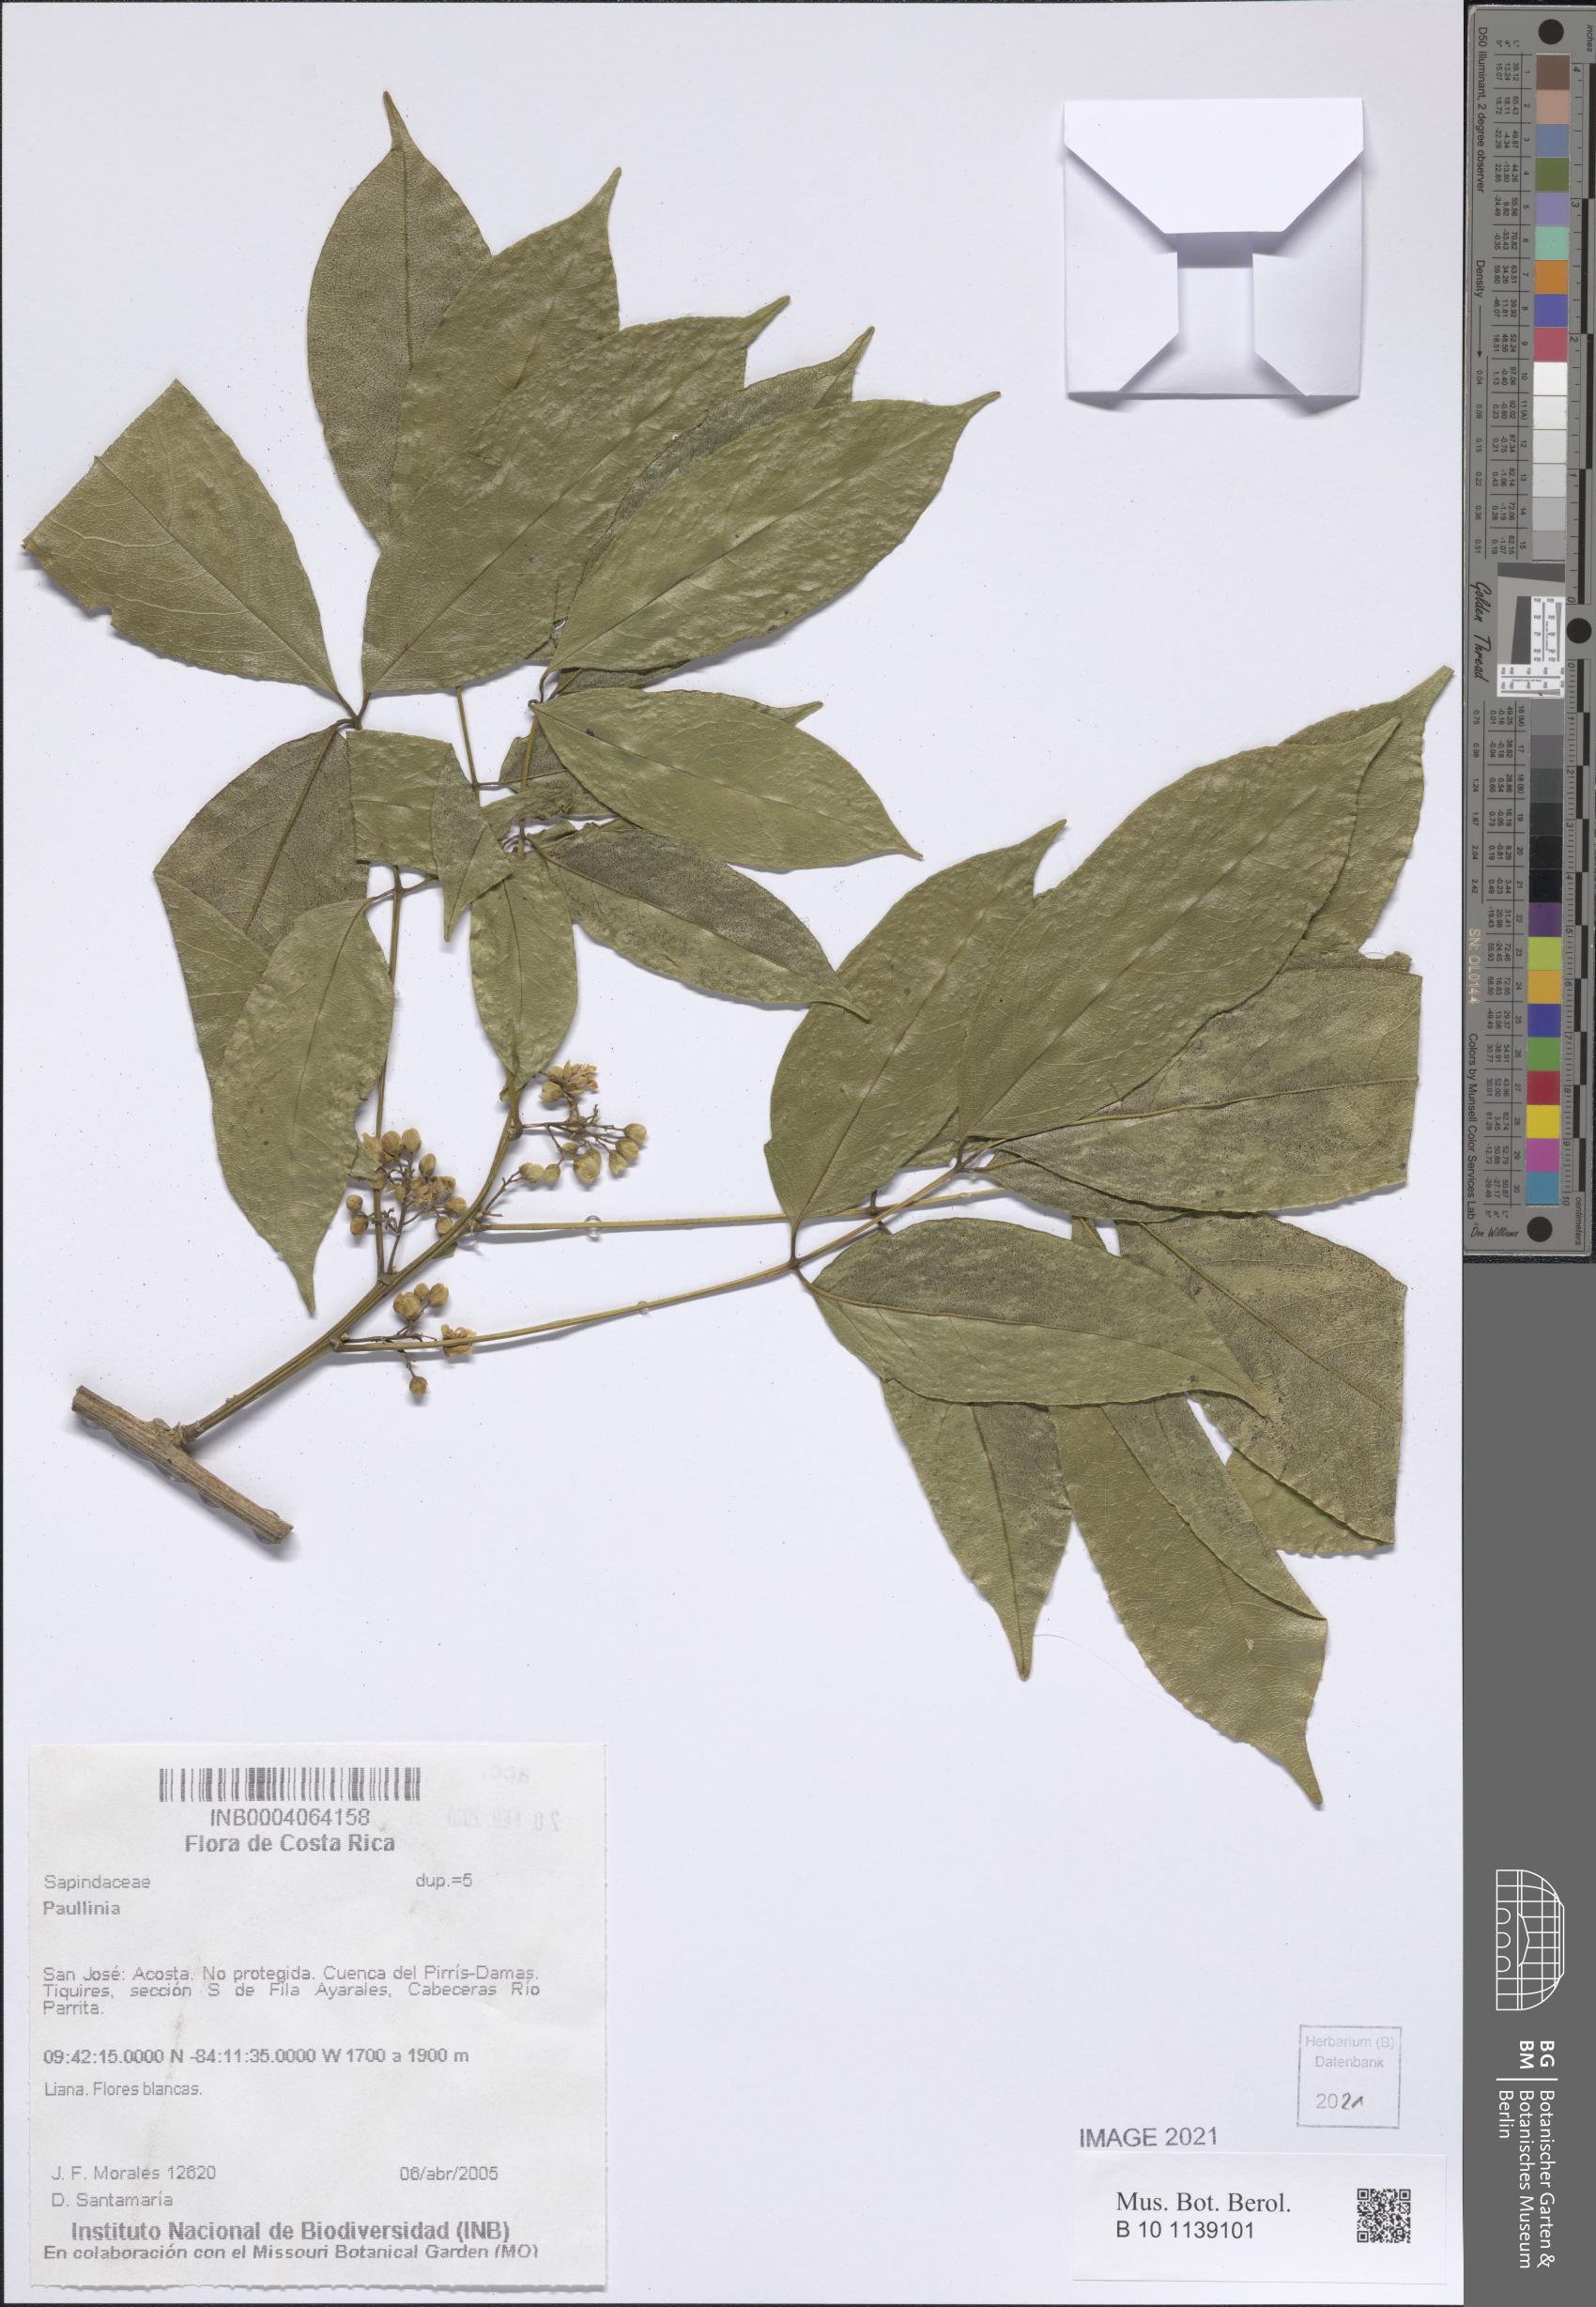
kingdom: Plantae
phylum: Tracheophyta
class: Magnoliopsida
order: Sapindales
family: Sapindaceae
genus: Paullinia
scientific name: Paullinia
